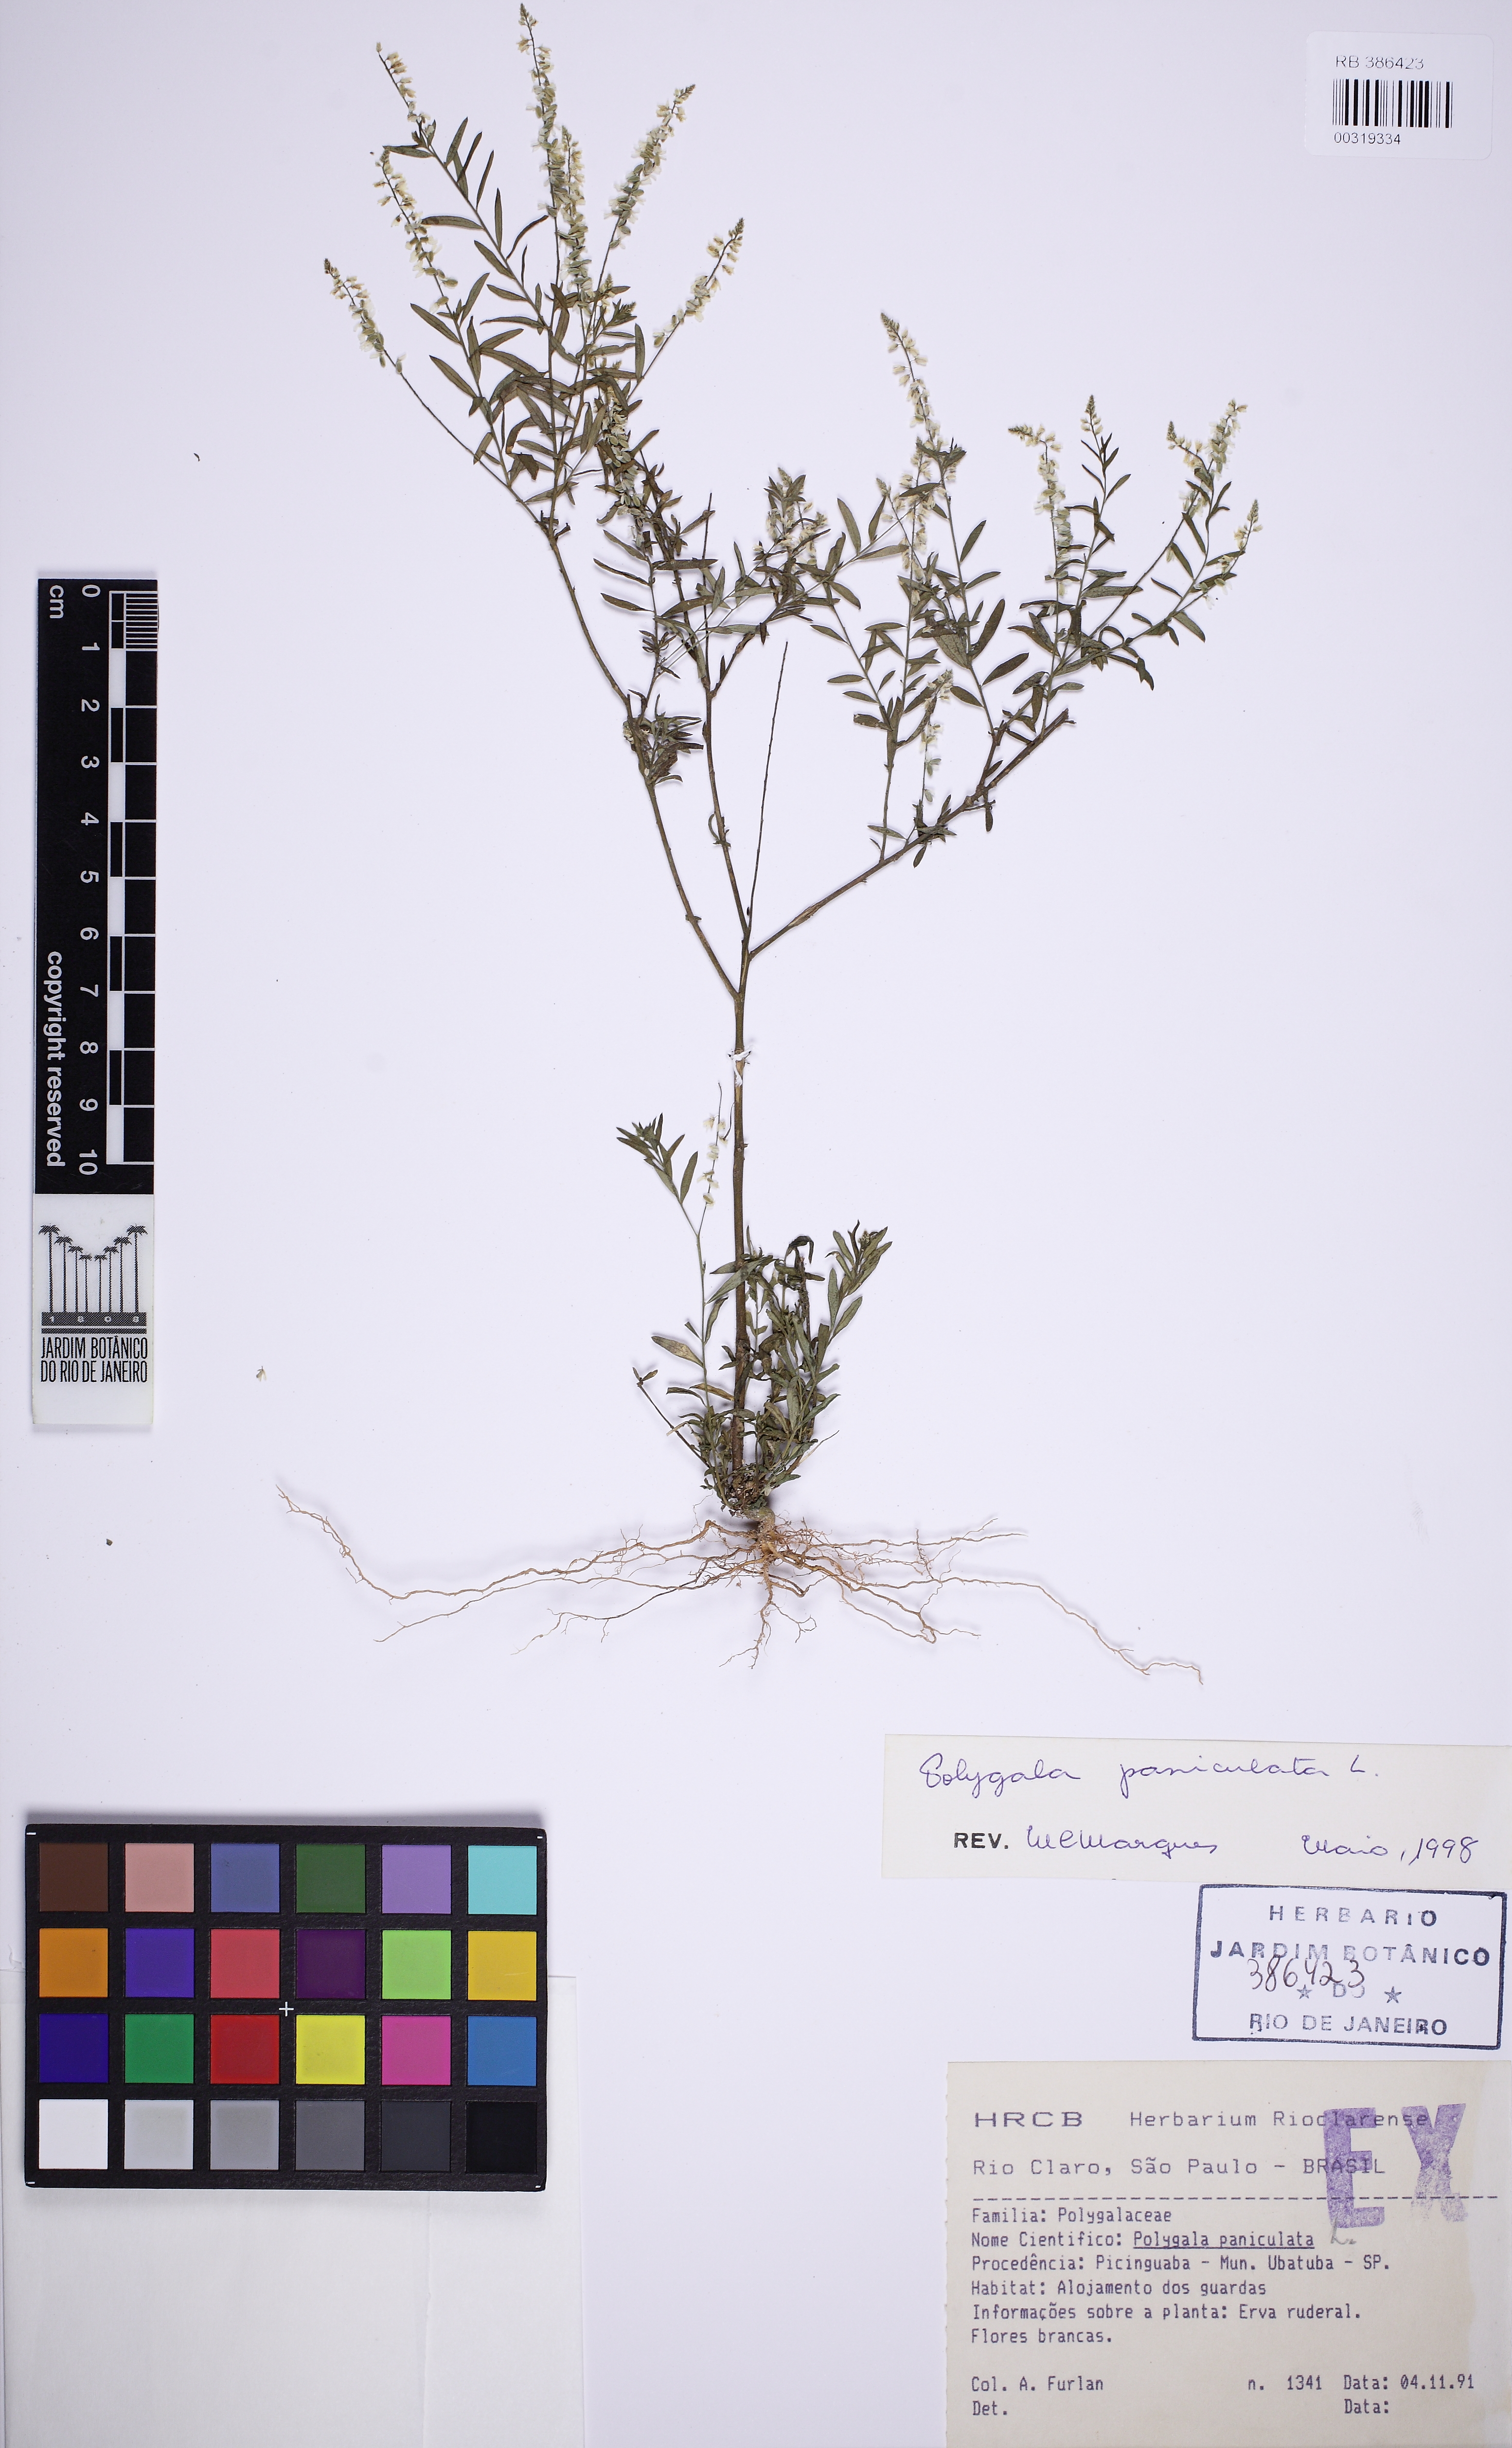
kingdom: Plantae
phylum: Tracheophyta
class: Magnoliopsida
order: Fabales
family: Polygalaceae
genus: Polygala
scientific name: Polygala paniculata
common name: Orosne
